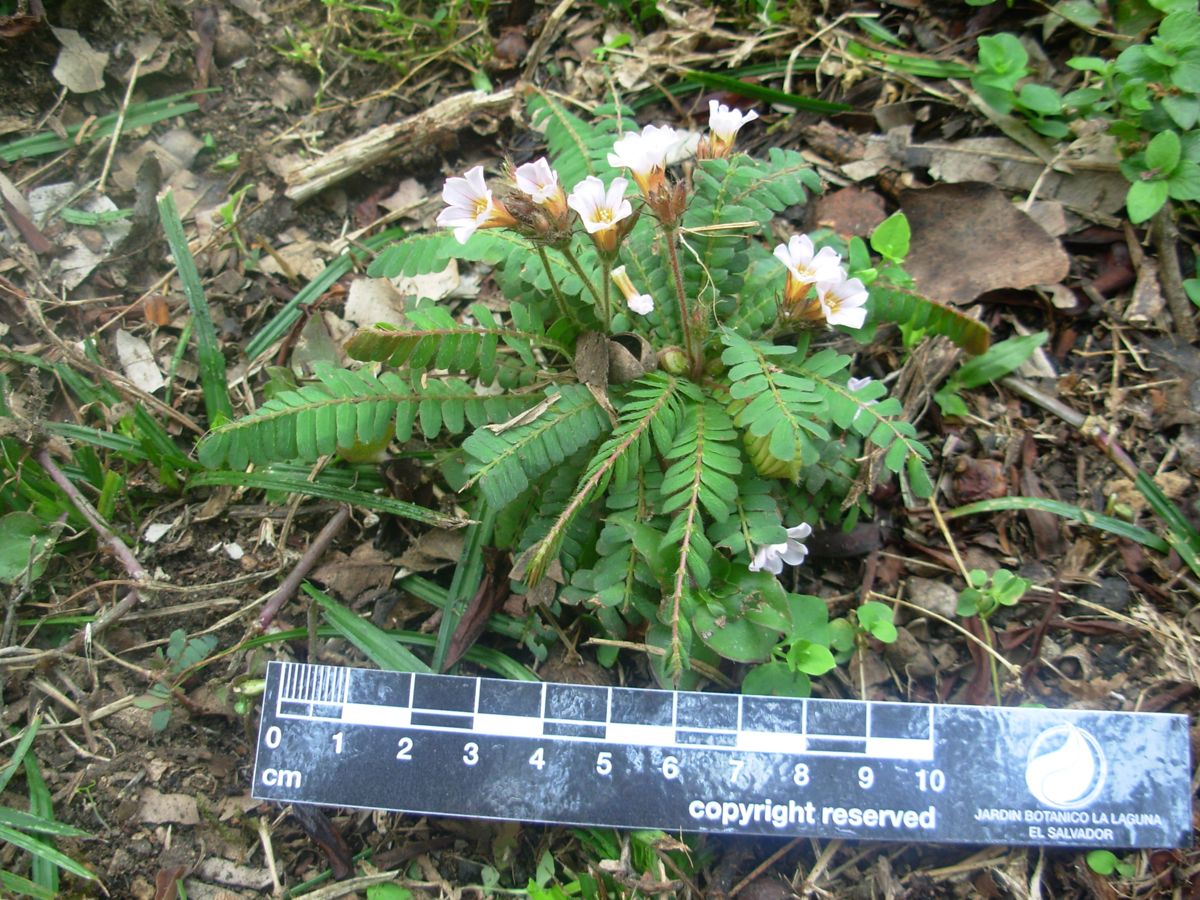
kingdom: Plantae
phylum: Tracheophyta
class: Magnoliopsida
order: Oxalidales
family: Oxalidaceae
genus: Biophytum
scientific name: Biophytum dendroides
